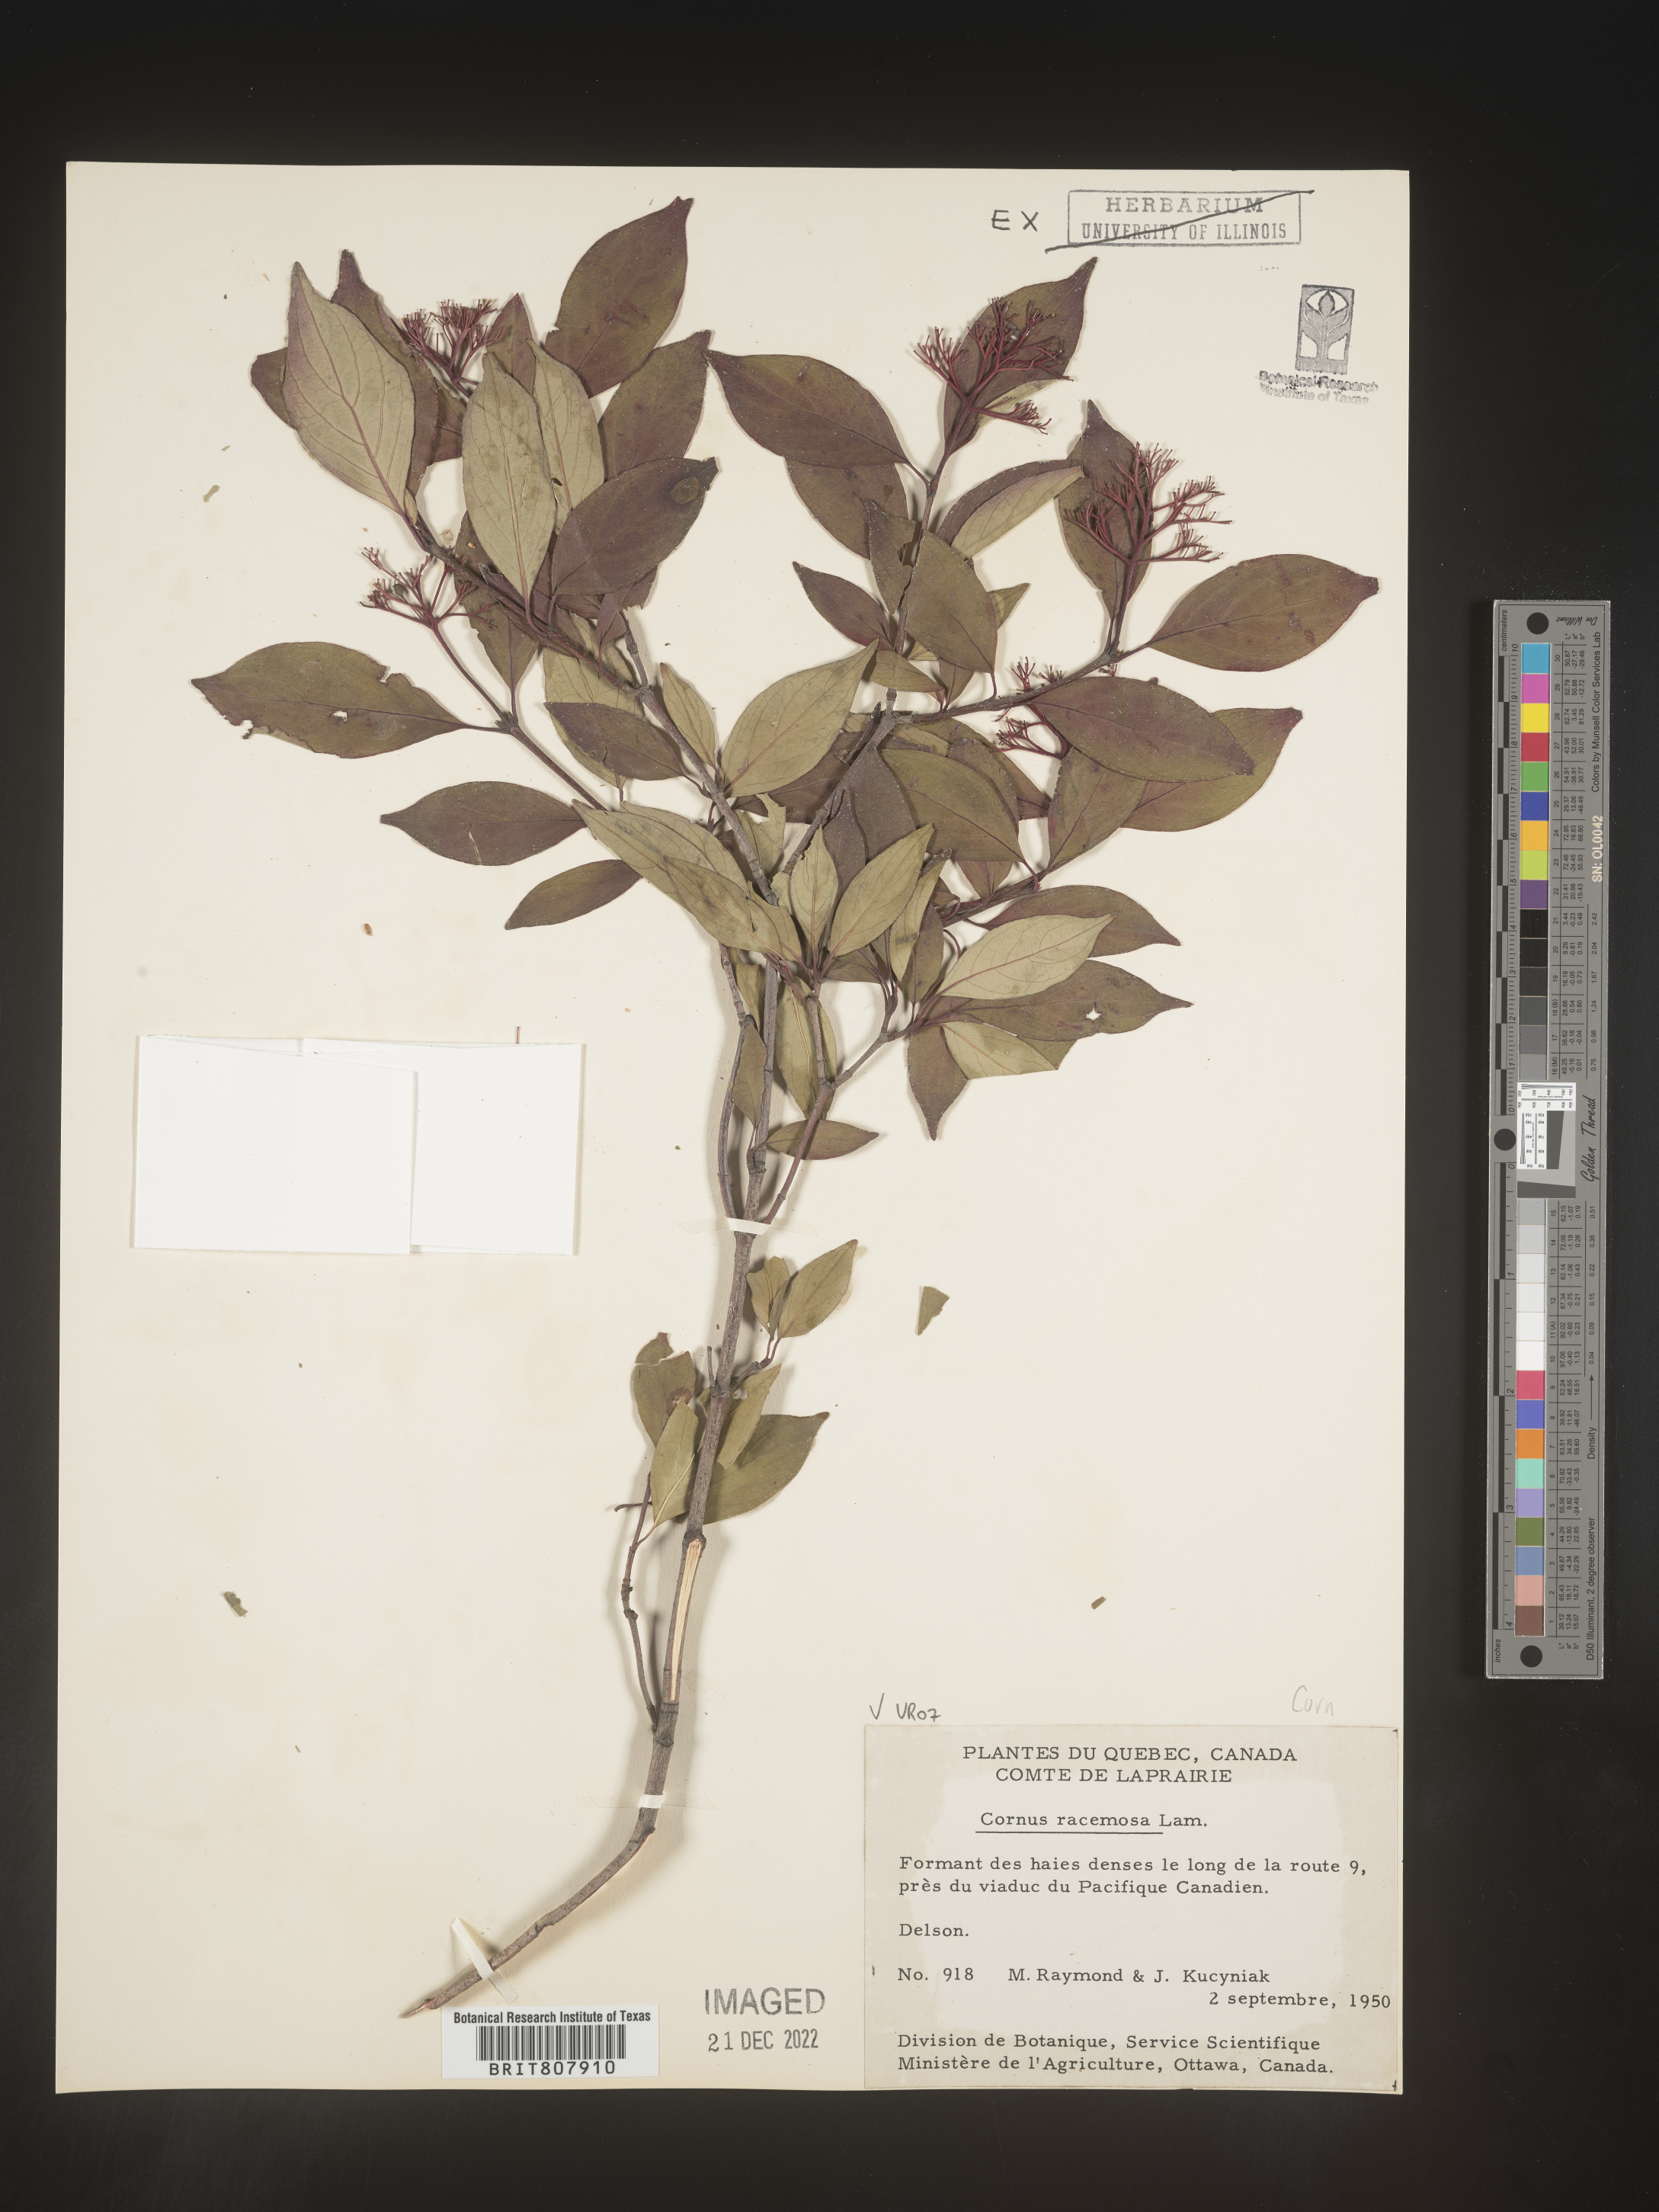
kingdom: Plantae
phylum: Tracheophyta
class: Magnoliopsida
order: Cornales
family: Cornaceae
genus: Cornus
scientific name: Cornus racemosa
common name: Panicled dogwood
